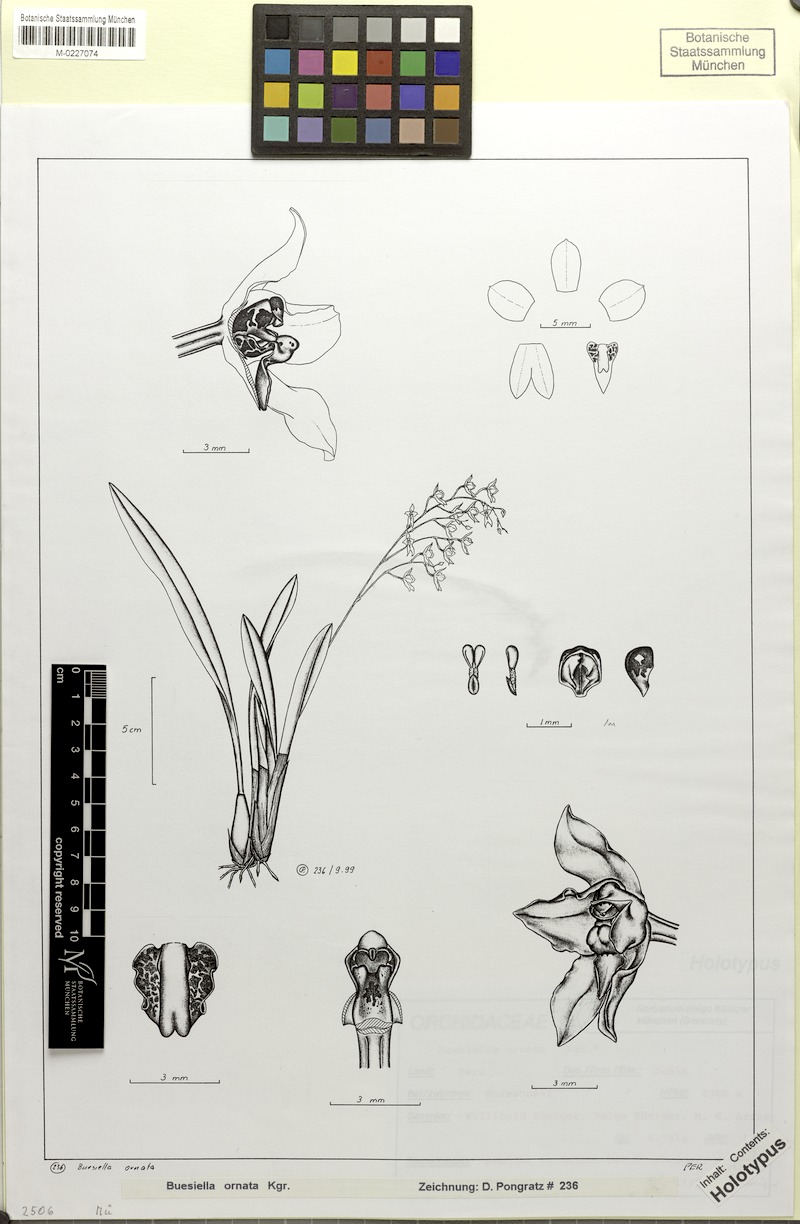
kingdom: Plantae
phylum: Tracheophyta
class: Liliopsida
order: Asparagales
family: Orchidaceae
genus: Cyrtochilum
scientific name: Cyrtochilum ornatum
